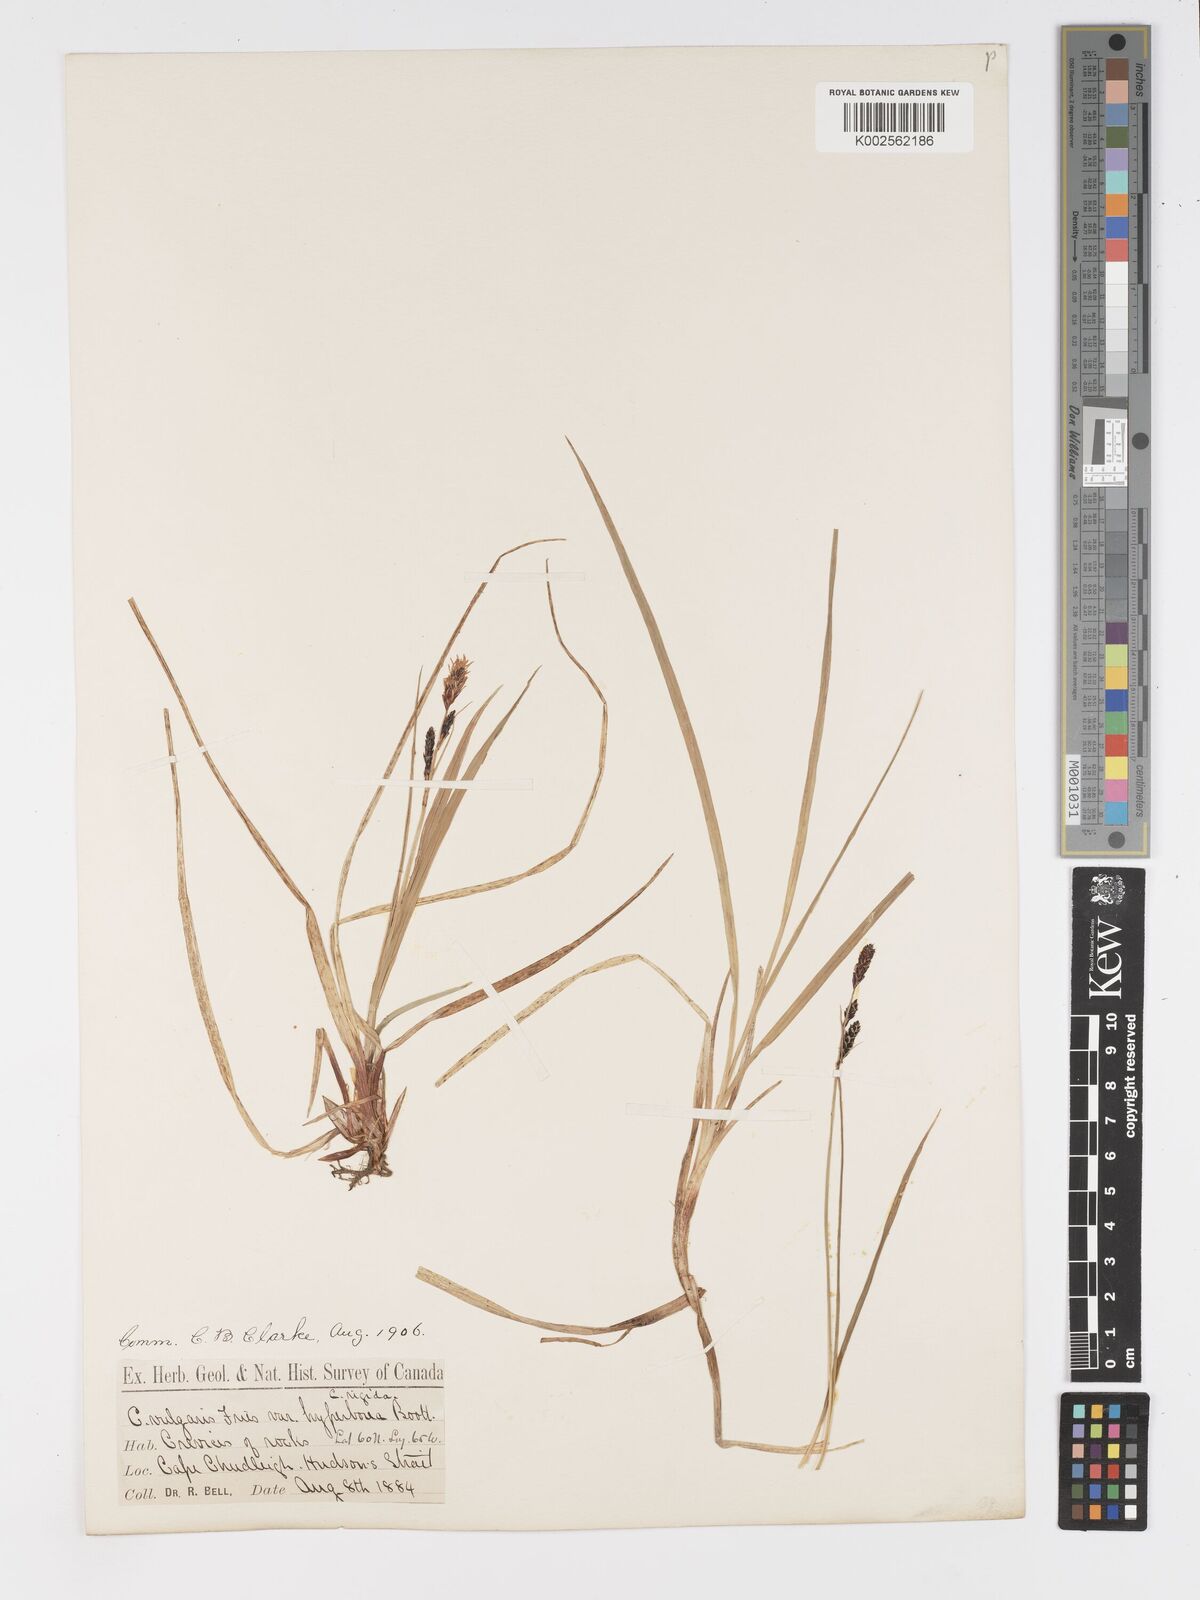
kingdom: Plantae
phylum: Tracheophyta
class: Liliopsida
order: Poales
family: Cyperaceae
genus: Carex
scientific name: Carex nigra
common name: Common sedge
